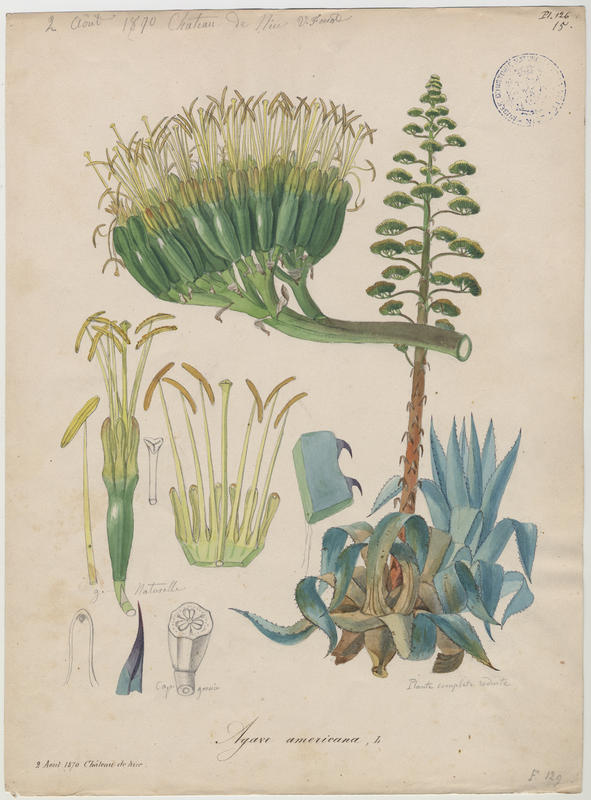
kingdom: Plantae
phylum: Tracheophyta
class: Liliopsida
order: Asparagales
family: Asparagaceae
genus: Agave
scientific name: Agave americana
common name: Centuryplant
